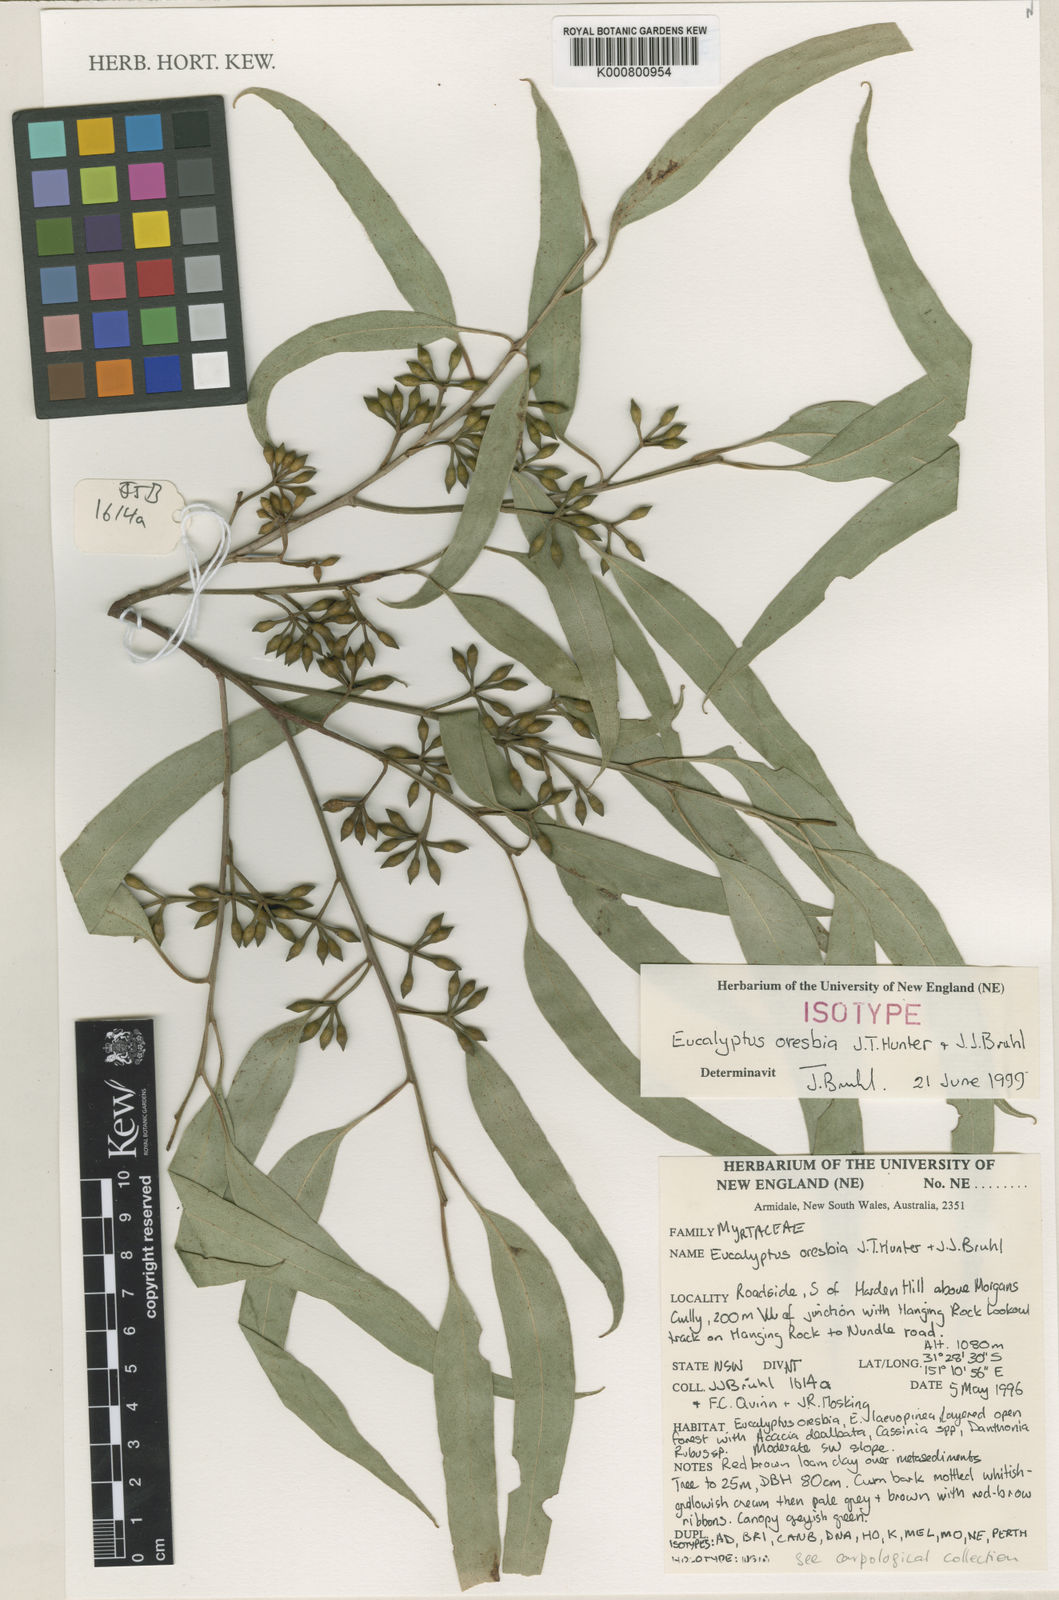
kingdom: Plantae
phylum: Tracheophyta
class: Magnoliopsida
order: Myrtales
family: Myrtaceae
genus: Eucalyptus
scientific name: Eucalyptus oresbia
